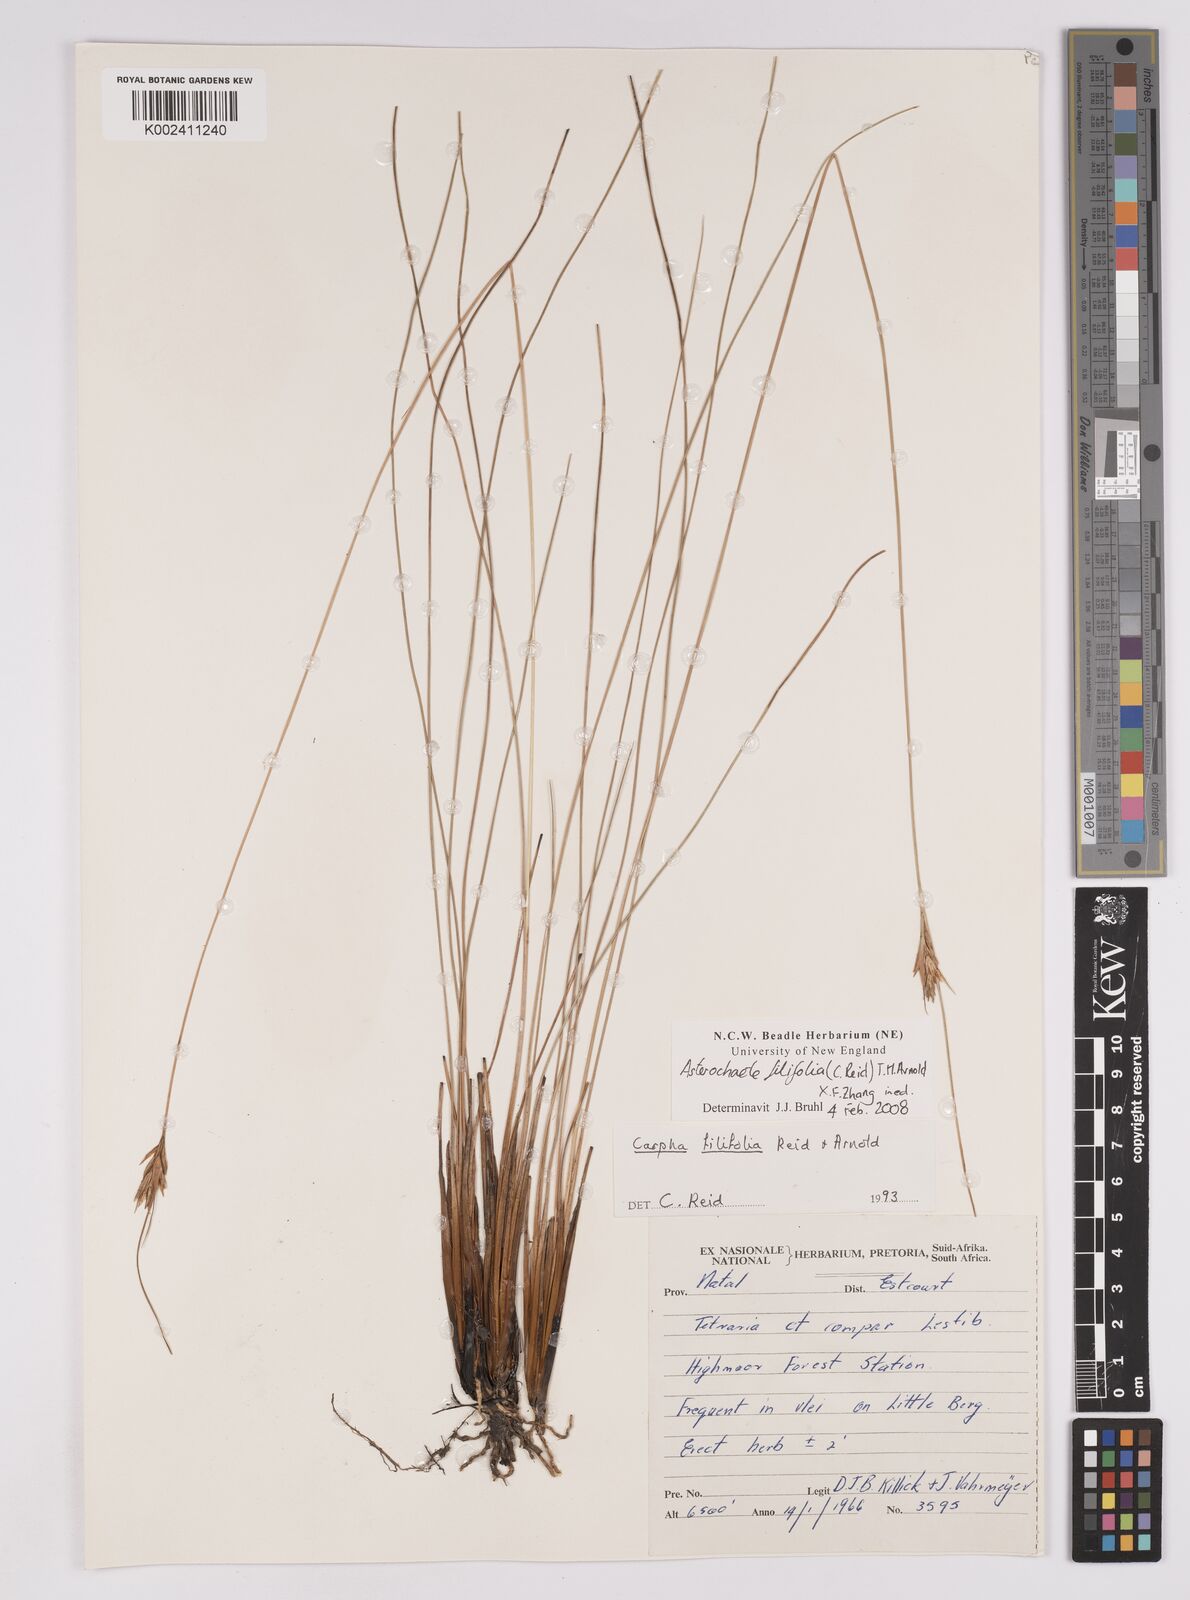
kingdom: Plantae
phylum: Tracheophyta
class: Liliopsida
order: Poales
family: Cyperaceae
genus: Carpha
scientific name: Carpha filifolia
